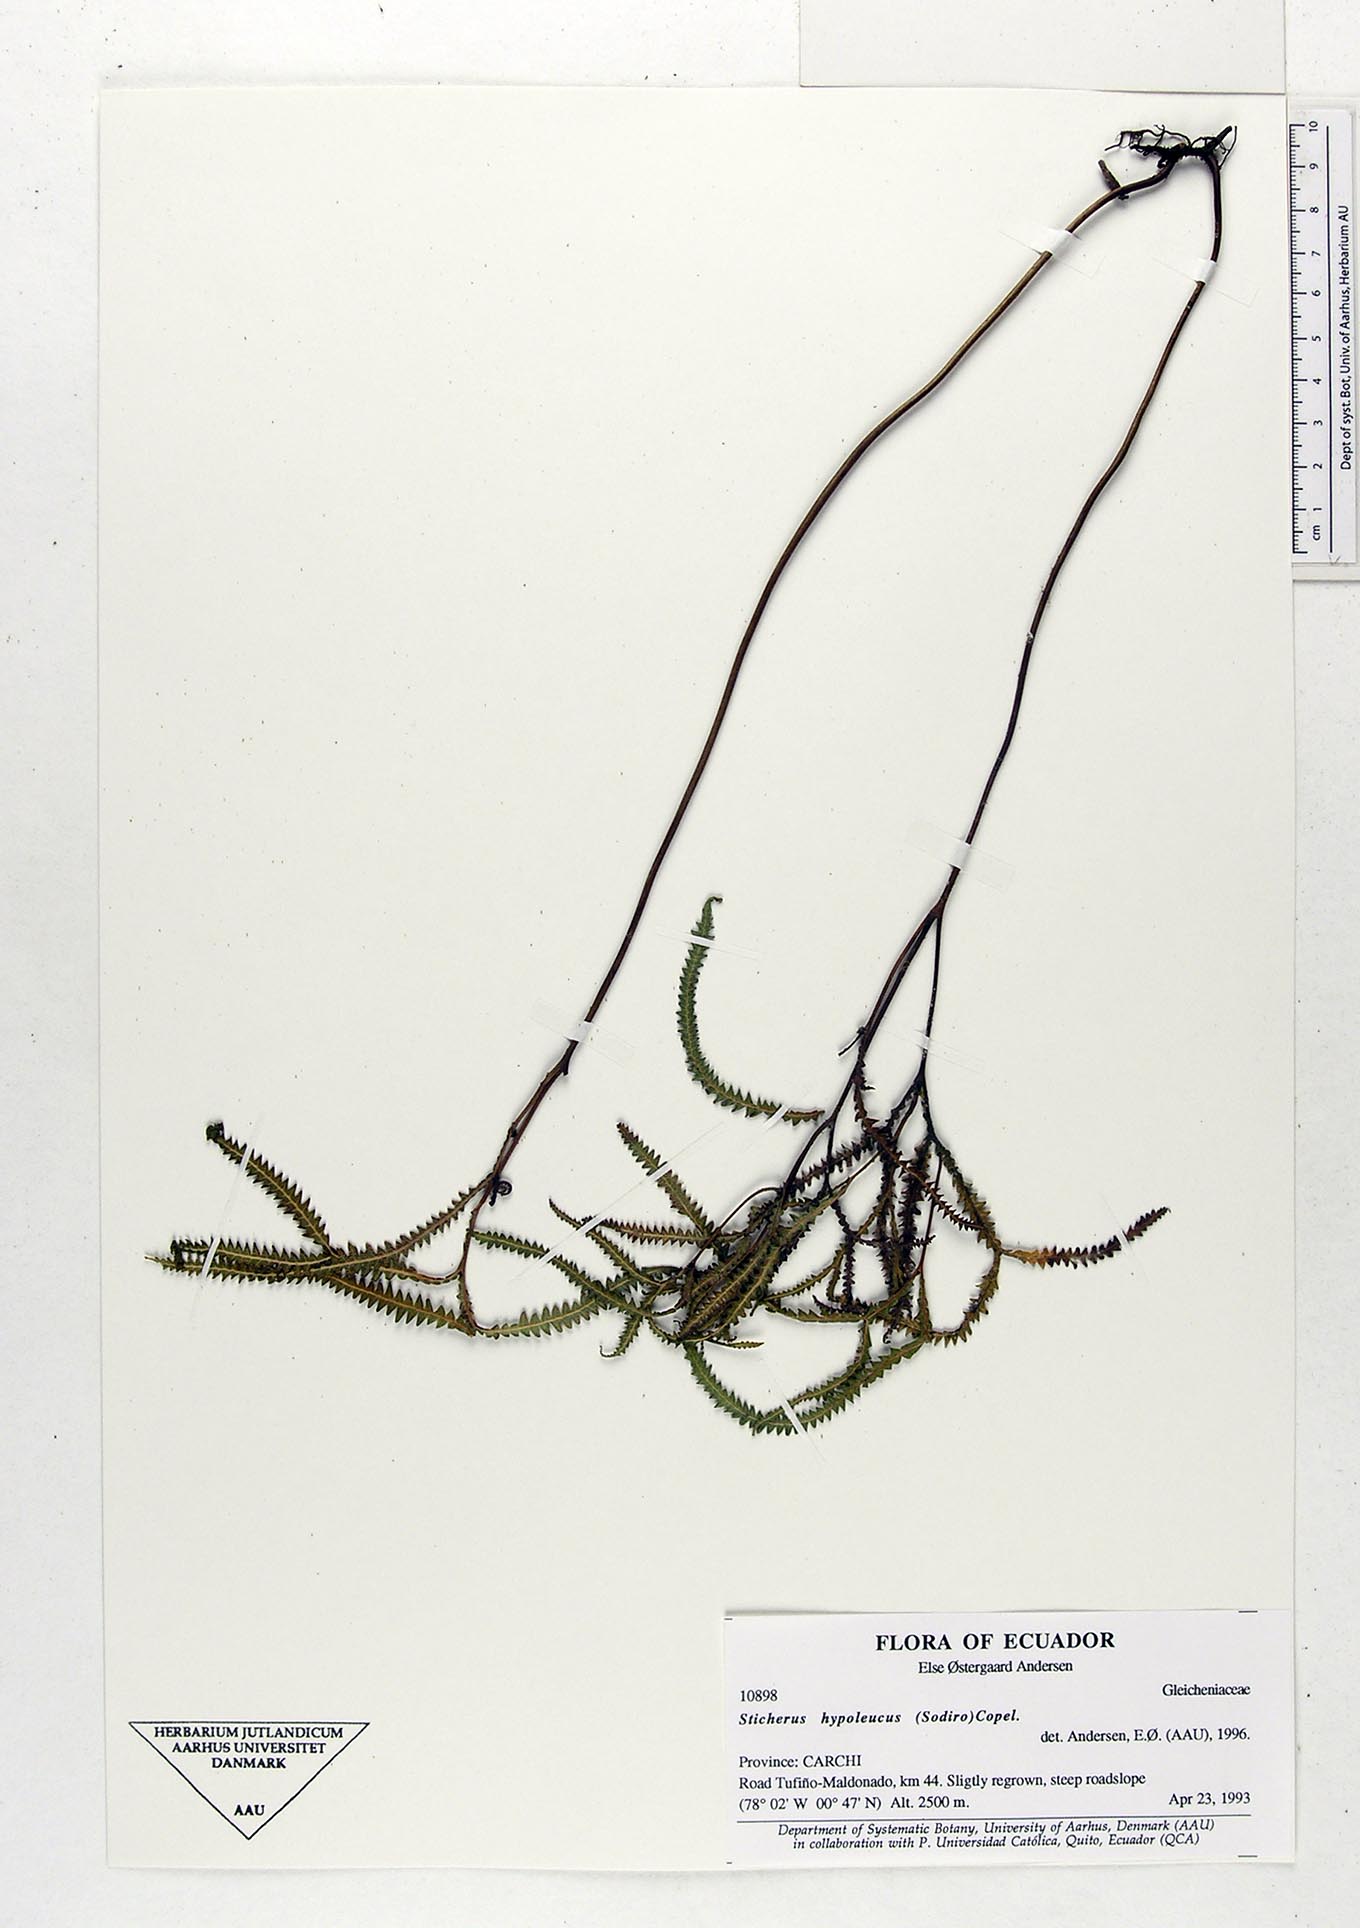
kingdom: Plantae
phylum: Tracheophyta
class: Polypodiopsida
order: Gleicheniales
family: Gleicheniaceae
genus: Sticherus
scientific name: Sticherus hypoleucus
